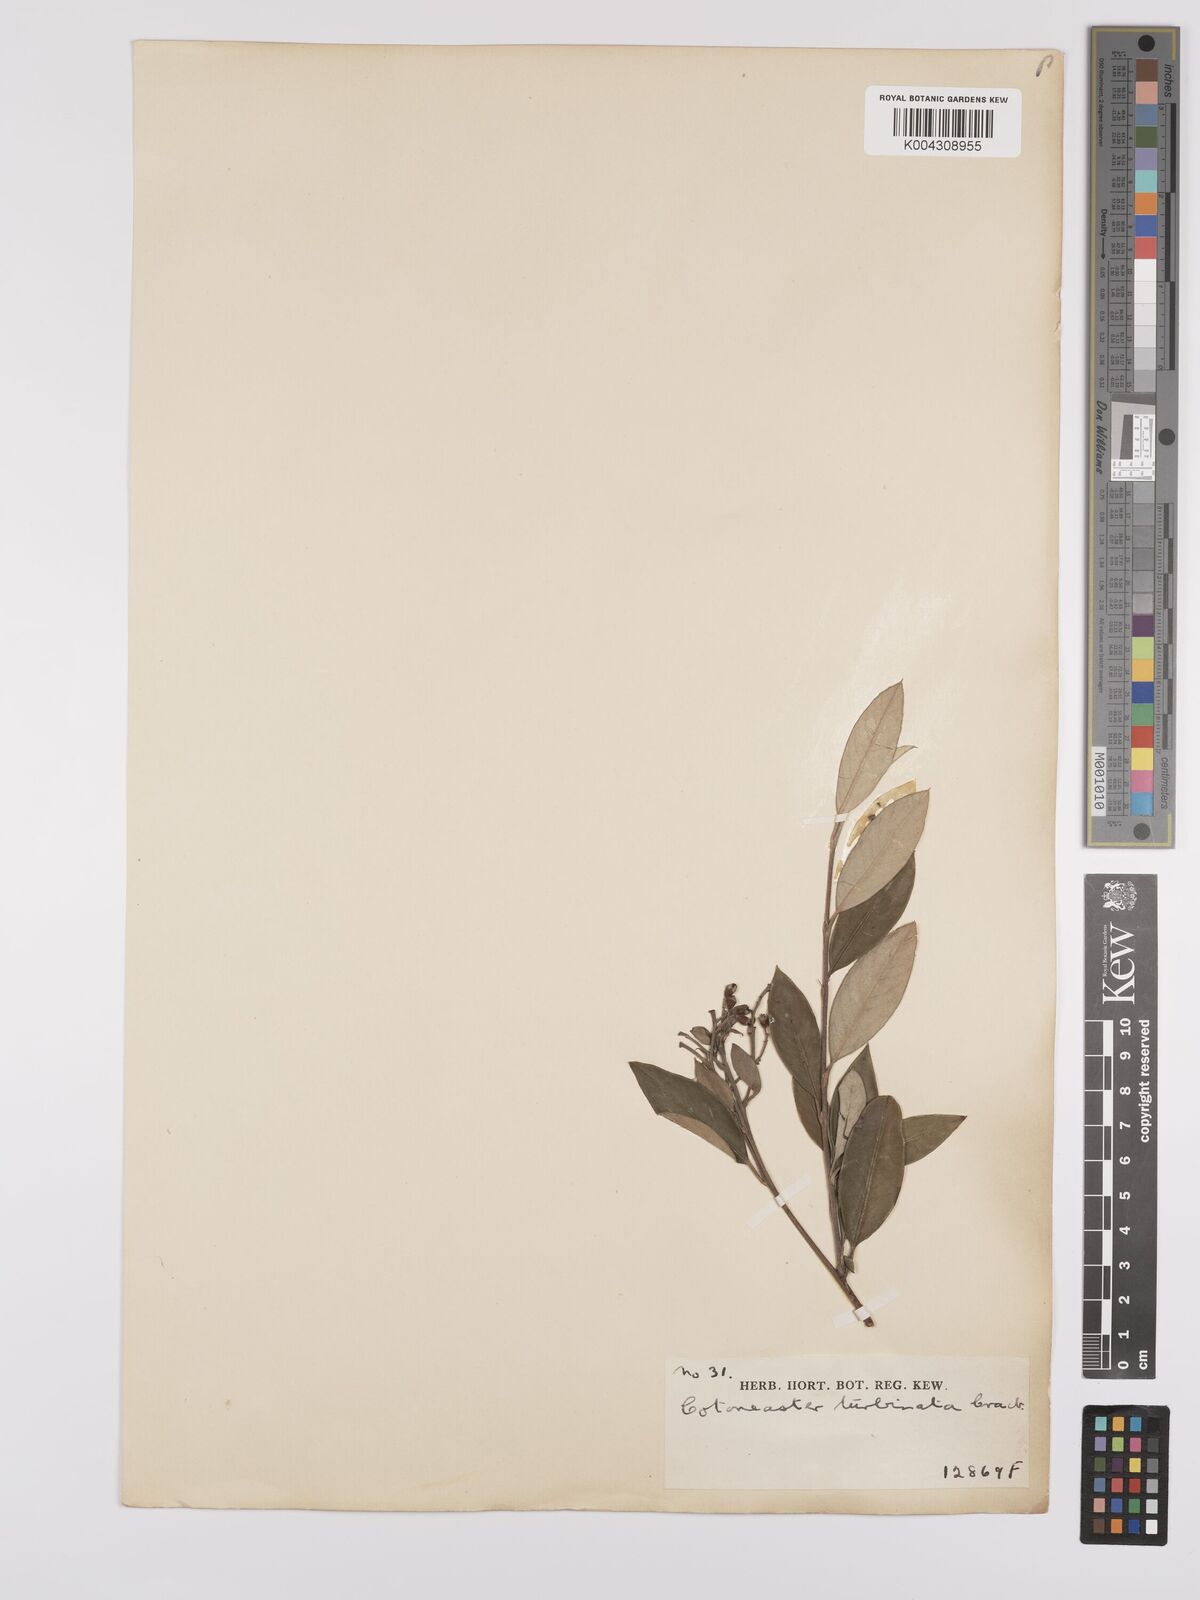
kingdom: Plantae
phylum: Tracheophyta
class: Magnoliopsida
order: Rosales
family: Rosaceae
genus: Cotoneaster
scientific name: Cotoneaster pannosus
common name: Silverleaf cotoneaster
